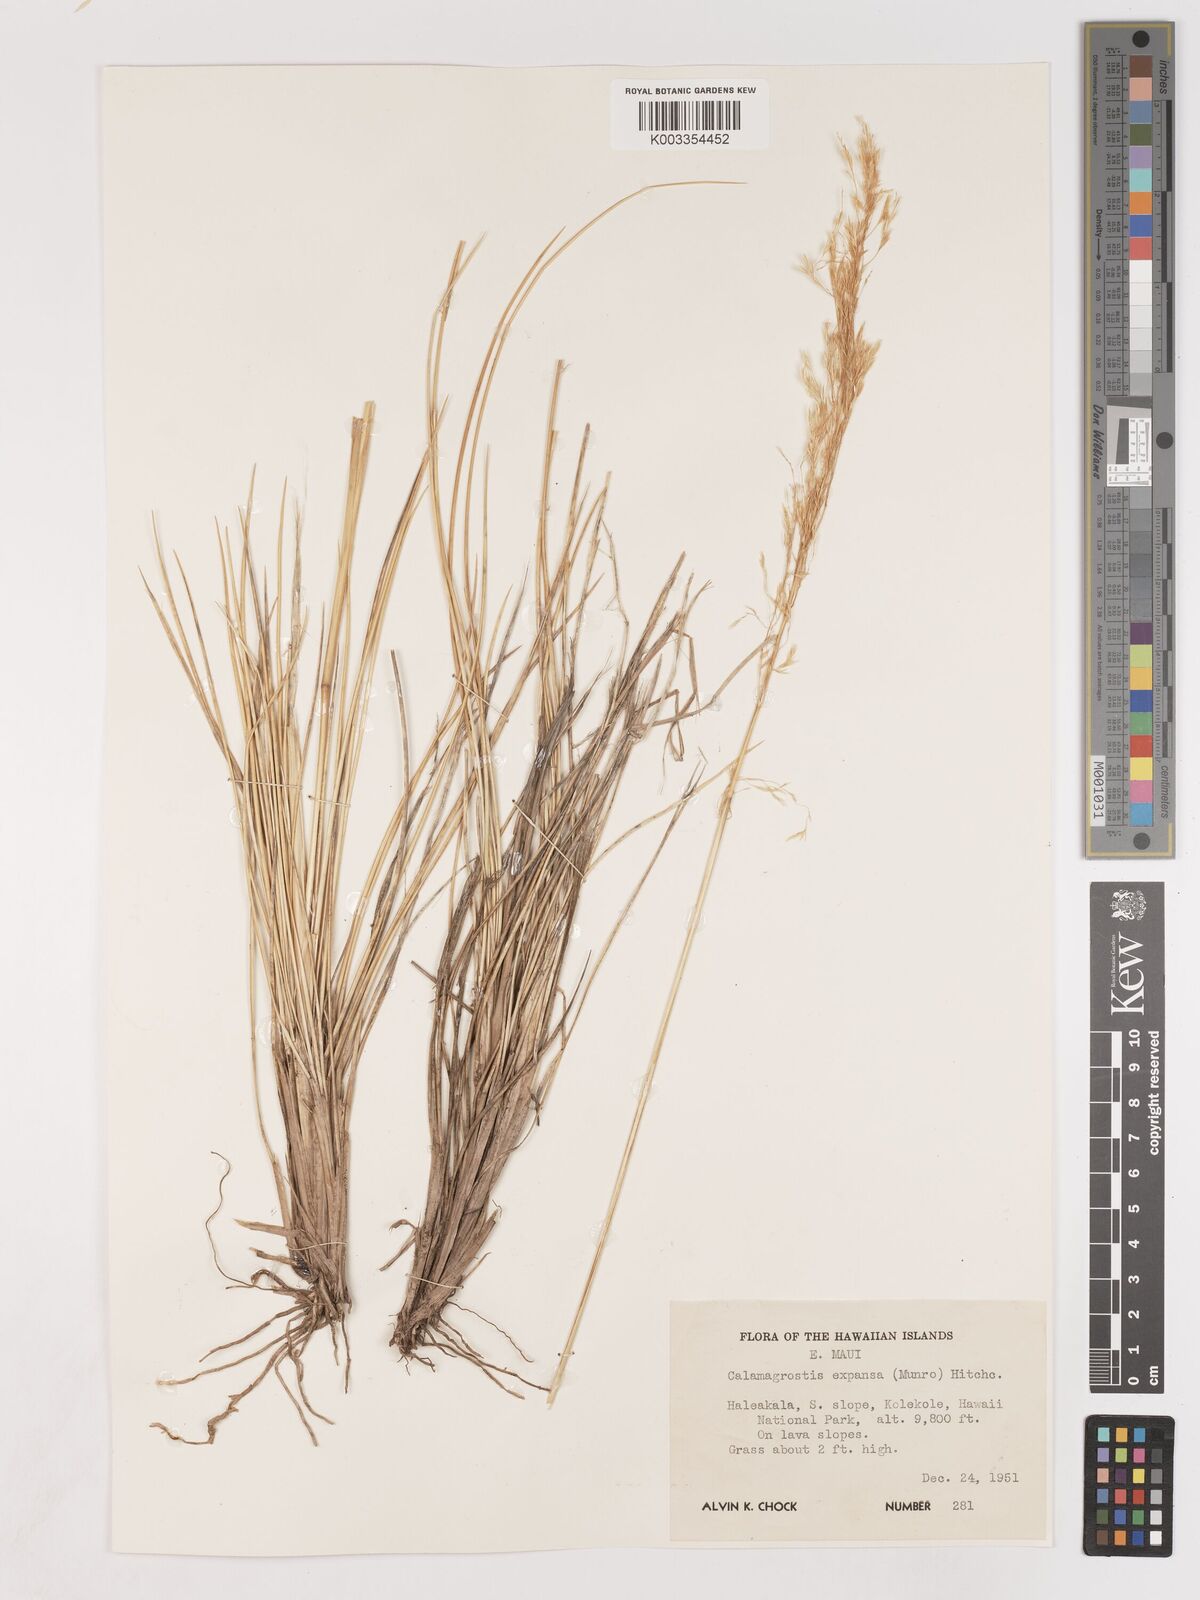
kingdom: Plantae
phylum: Tracheophyta
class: Liliopsida
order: Poales
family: Poaceae
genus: Calamagrostis
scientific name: Calamagrostis expansa
